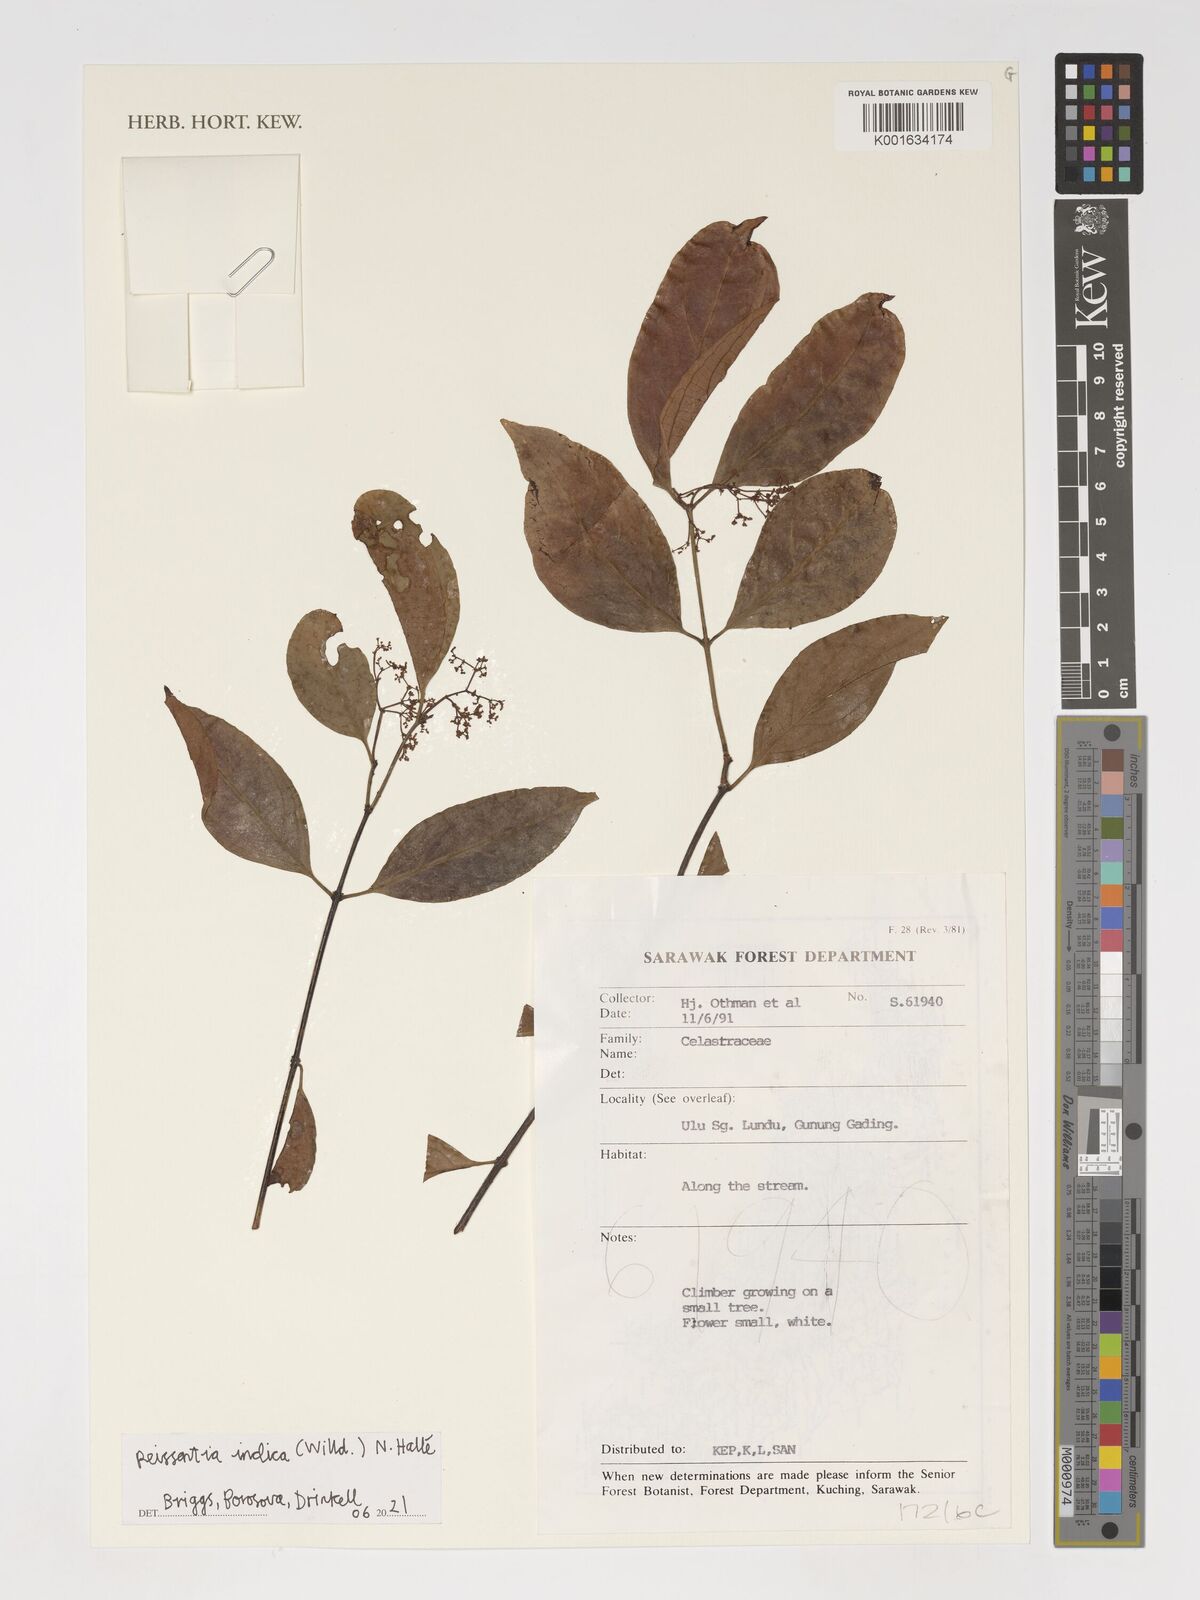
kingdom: Plantae
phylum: Tracheophyta
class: Magnoliopsida
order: Celastrales
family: Celastraceae
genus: Reissantia
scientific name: Reissantia indica
